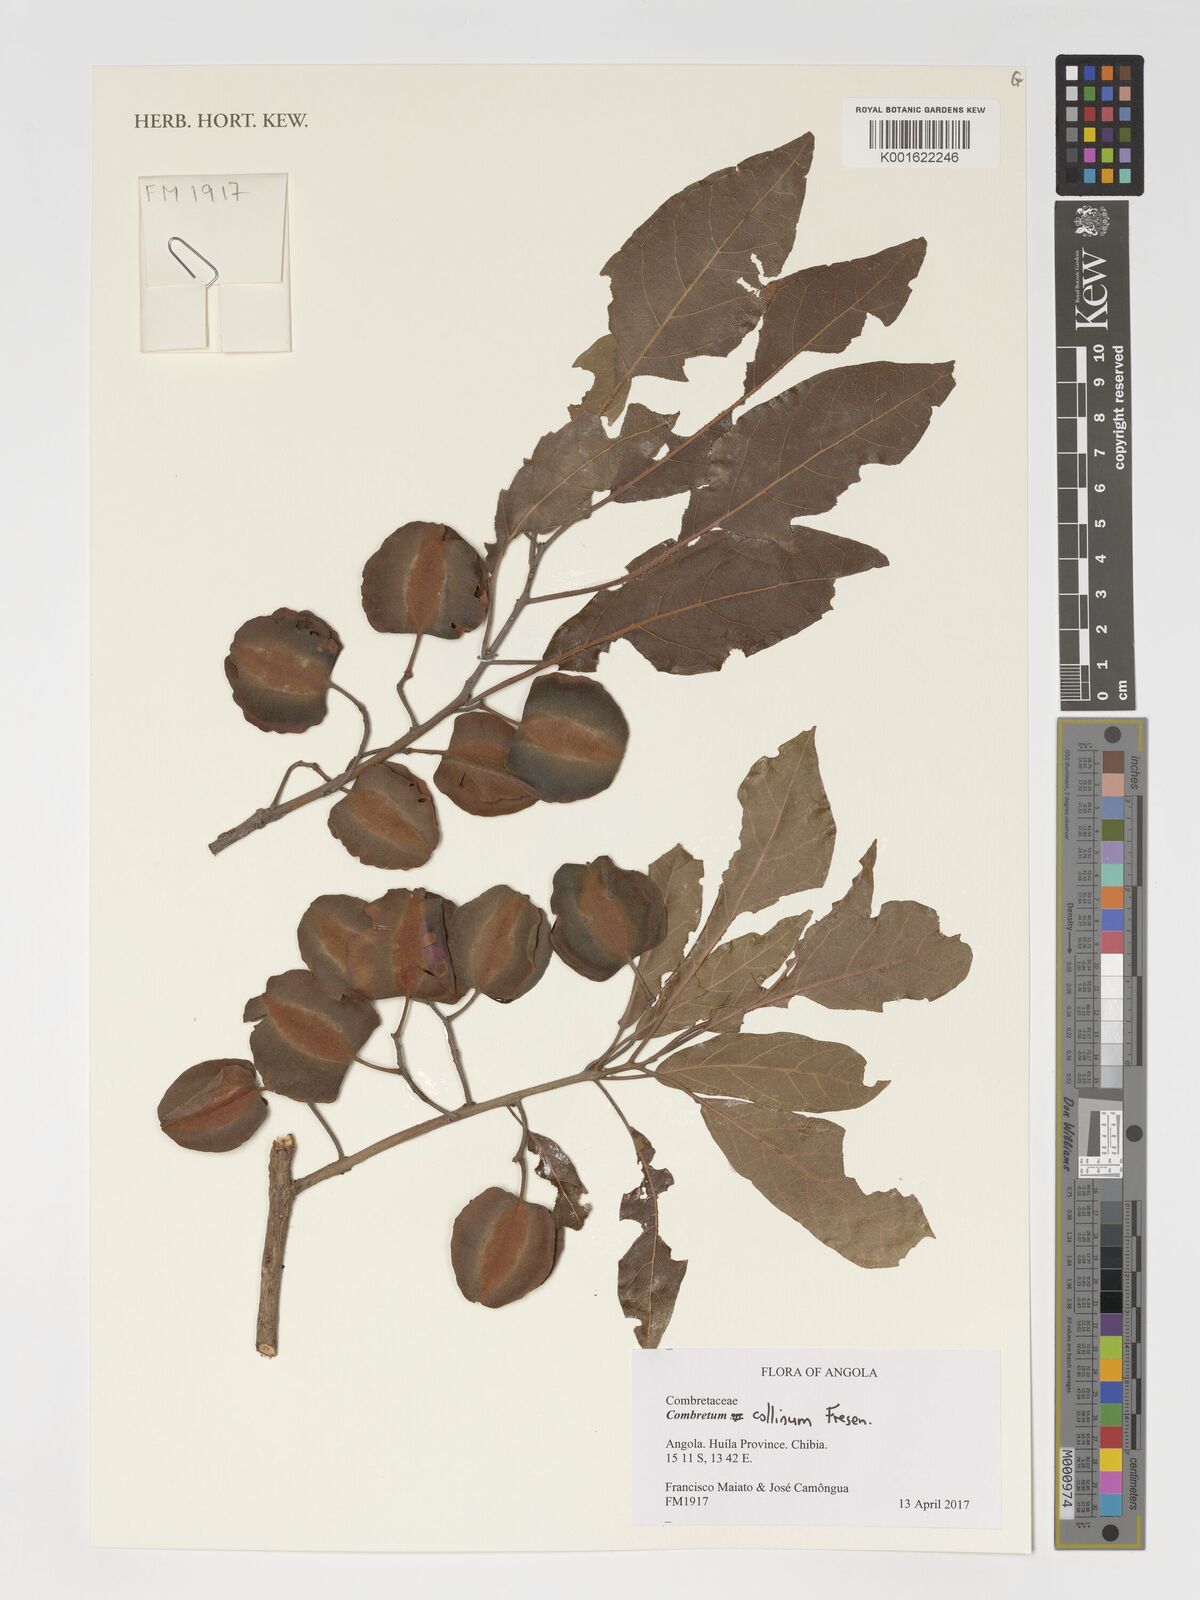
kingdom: Plantae
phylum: Tracheophyta
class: Magnoliopsida
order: Myrtales
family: Combretaceae
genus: Combretum
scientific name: Combretum collinum
